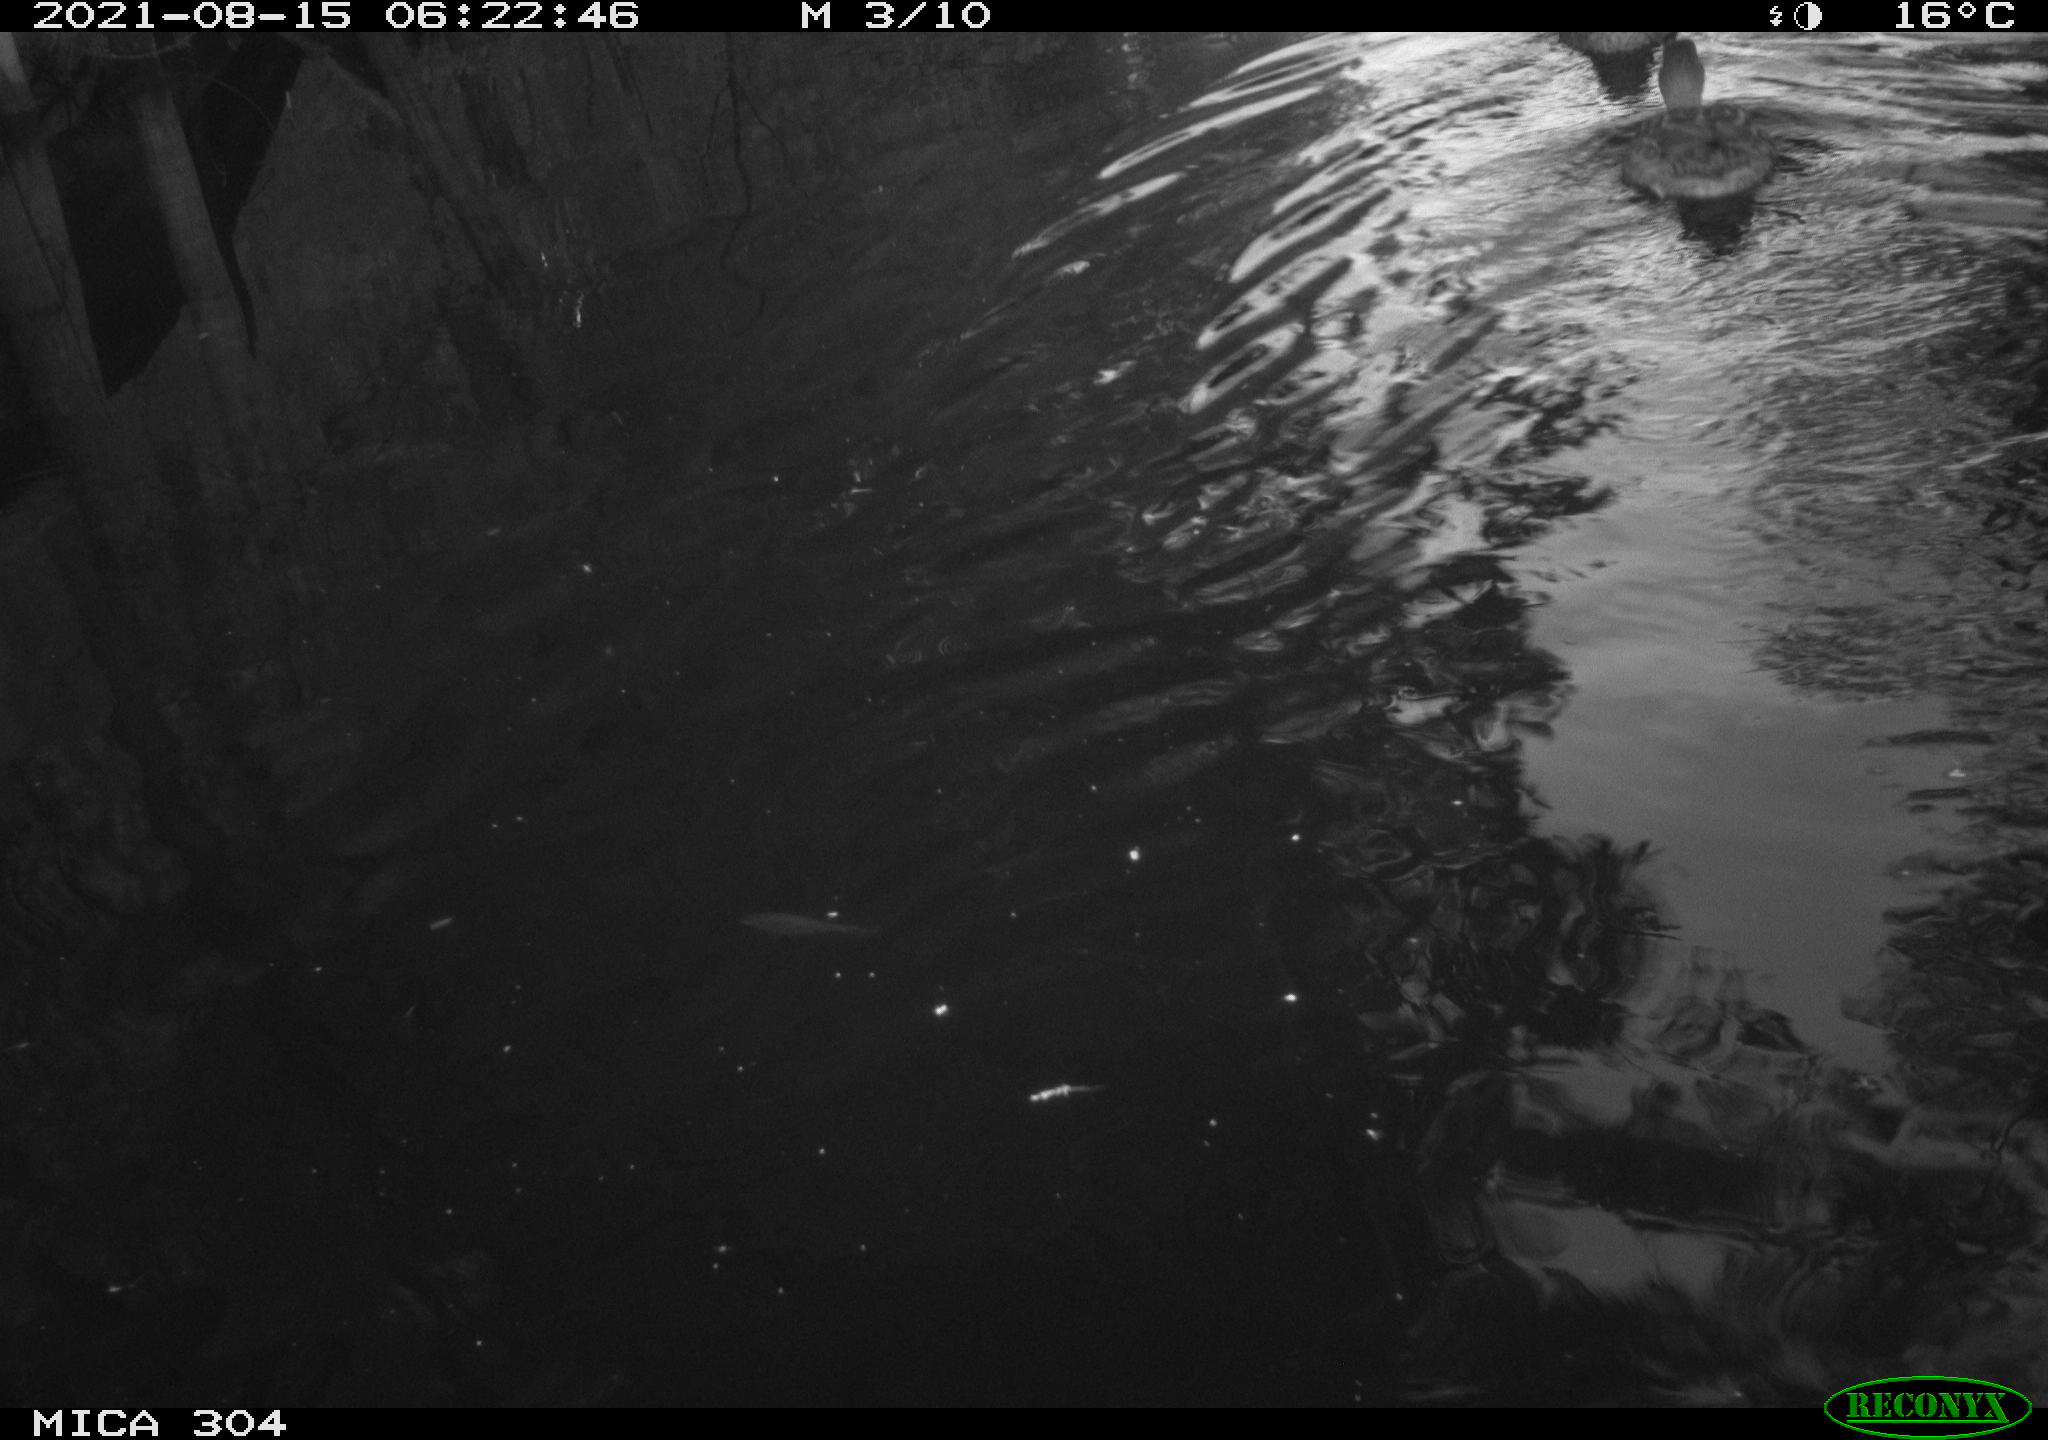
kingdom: Animalia
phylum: Chordata
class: Aves
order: Anseriformes
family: Anatidae
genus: Anas
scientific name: Anas platyrhynchos
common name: Mallard
